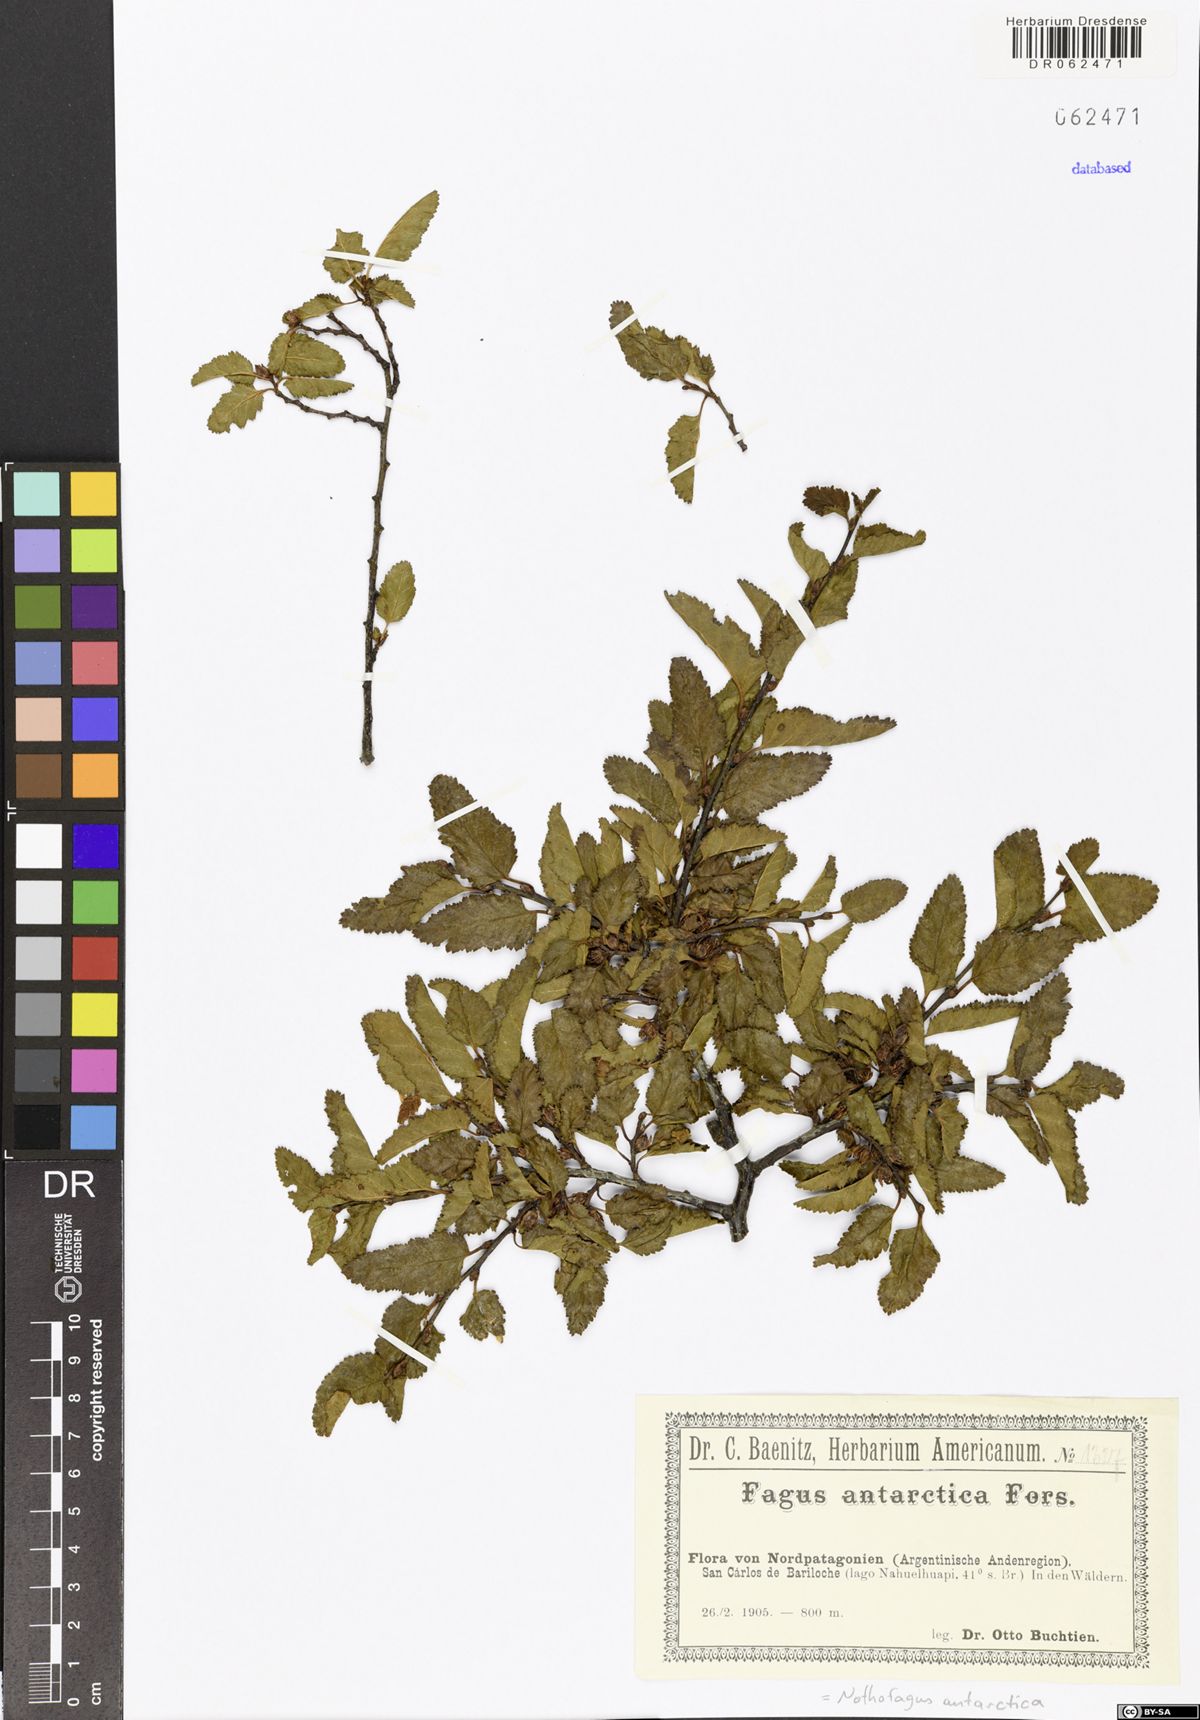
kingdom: Plantae
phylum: Tracheophyta
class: Magnoliopsida
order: Fagales
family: Nothofagaceae
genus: Nothofagus
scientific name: Nothofagus antarctica
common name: Antarctic beech
